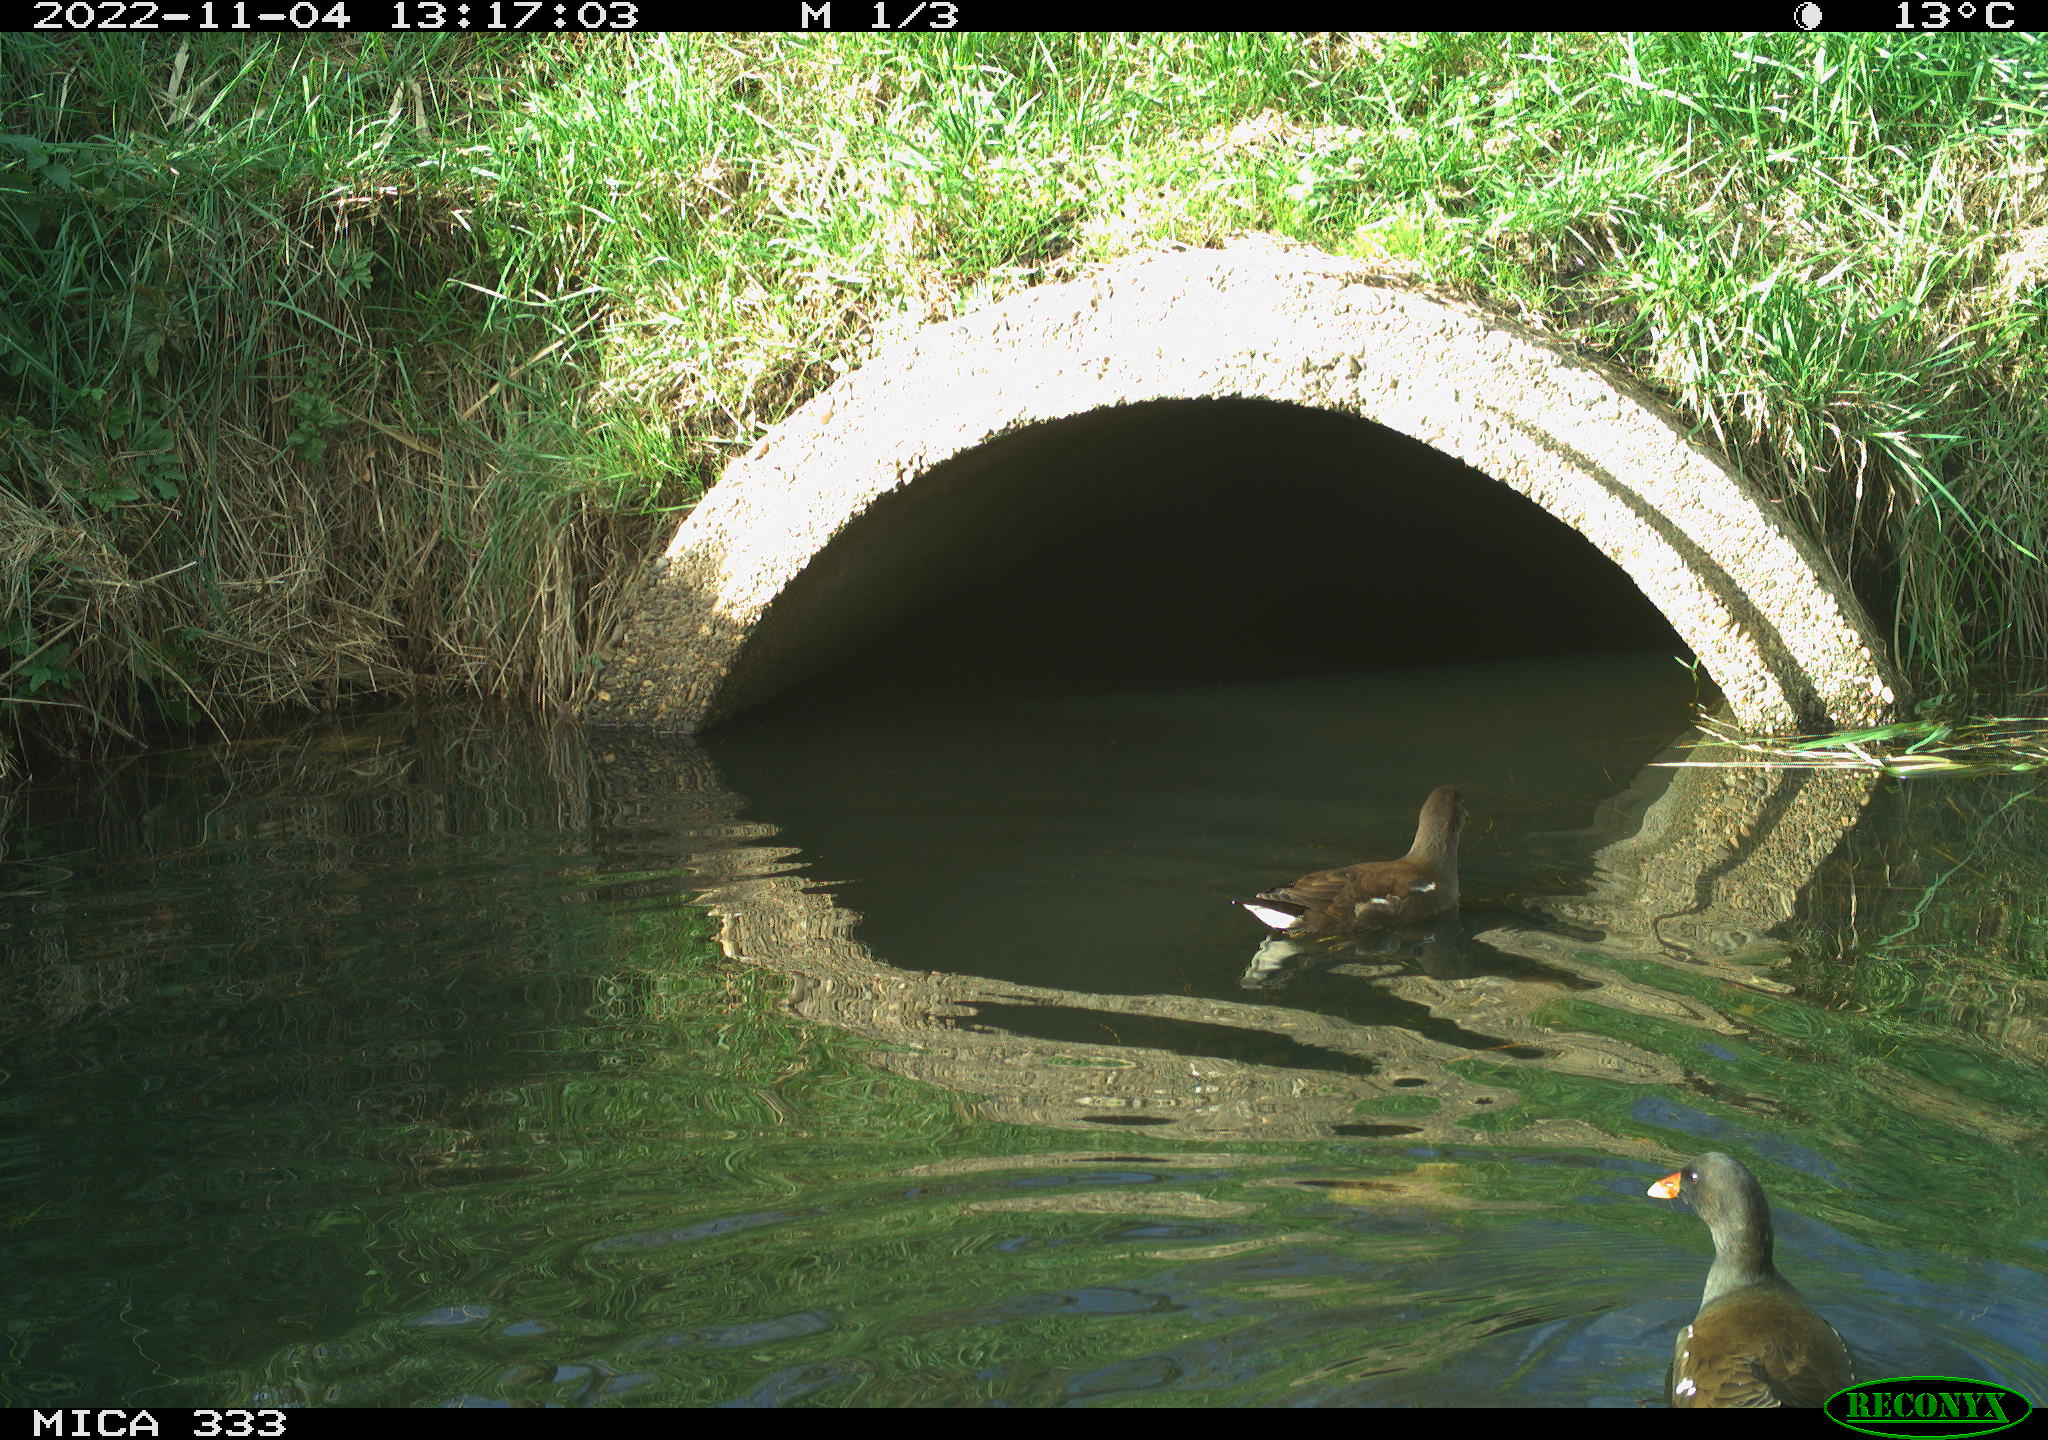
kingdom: Animalia
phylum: Chordata
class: Aves
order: Gruiformes
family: Rallidae
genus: Gallinula
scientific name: Gallinula chloropus
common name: Common moorhen
